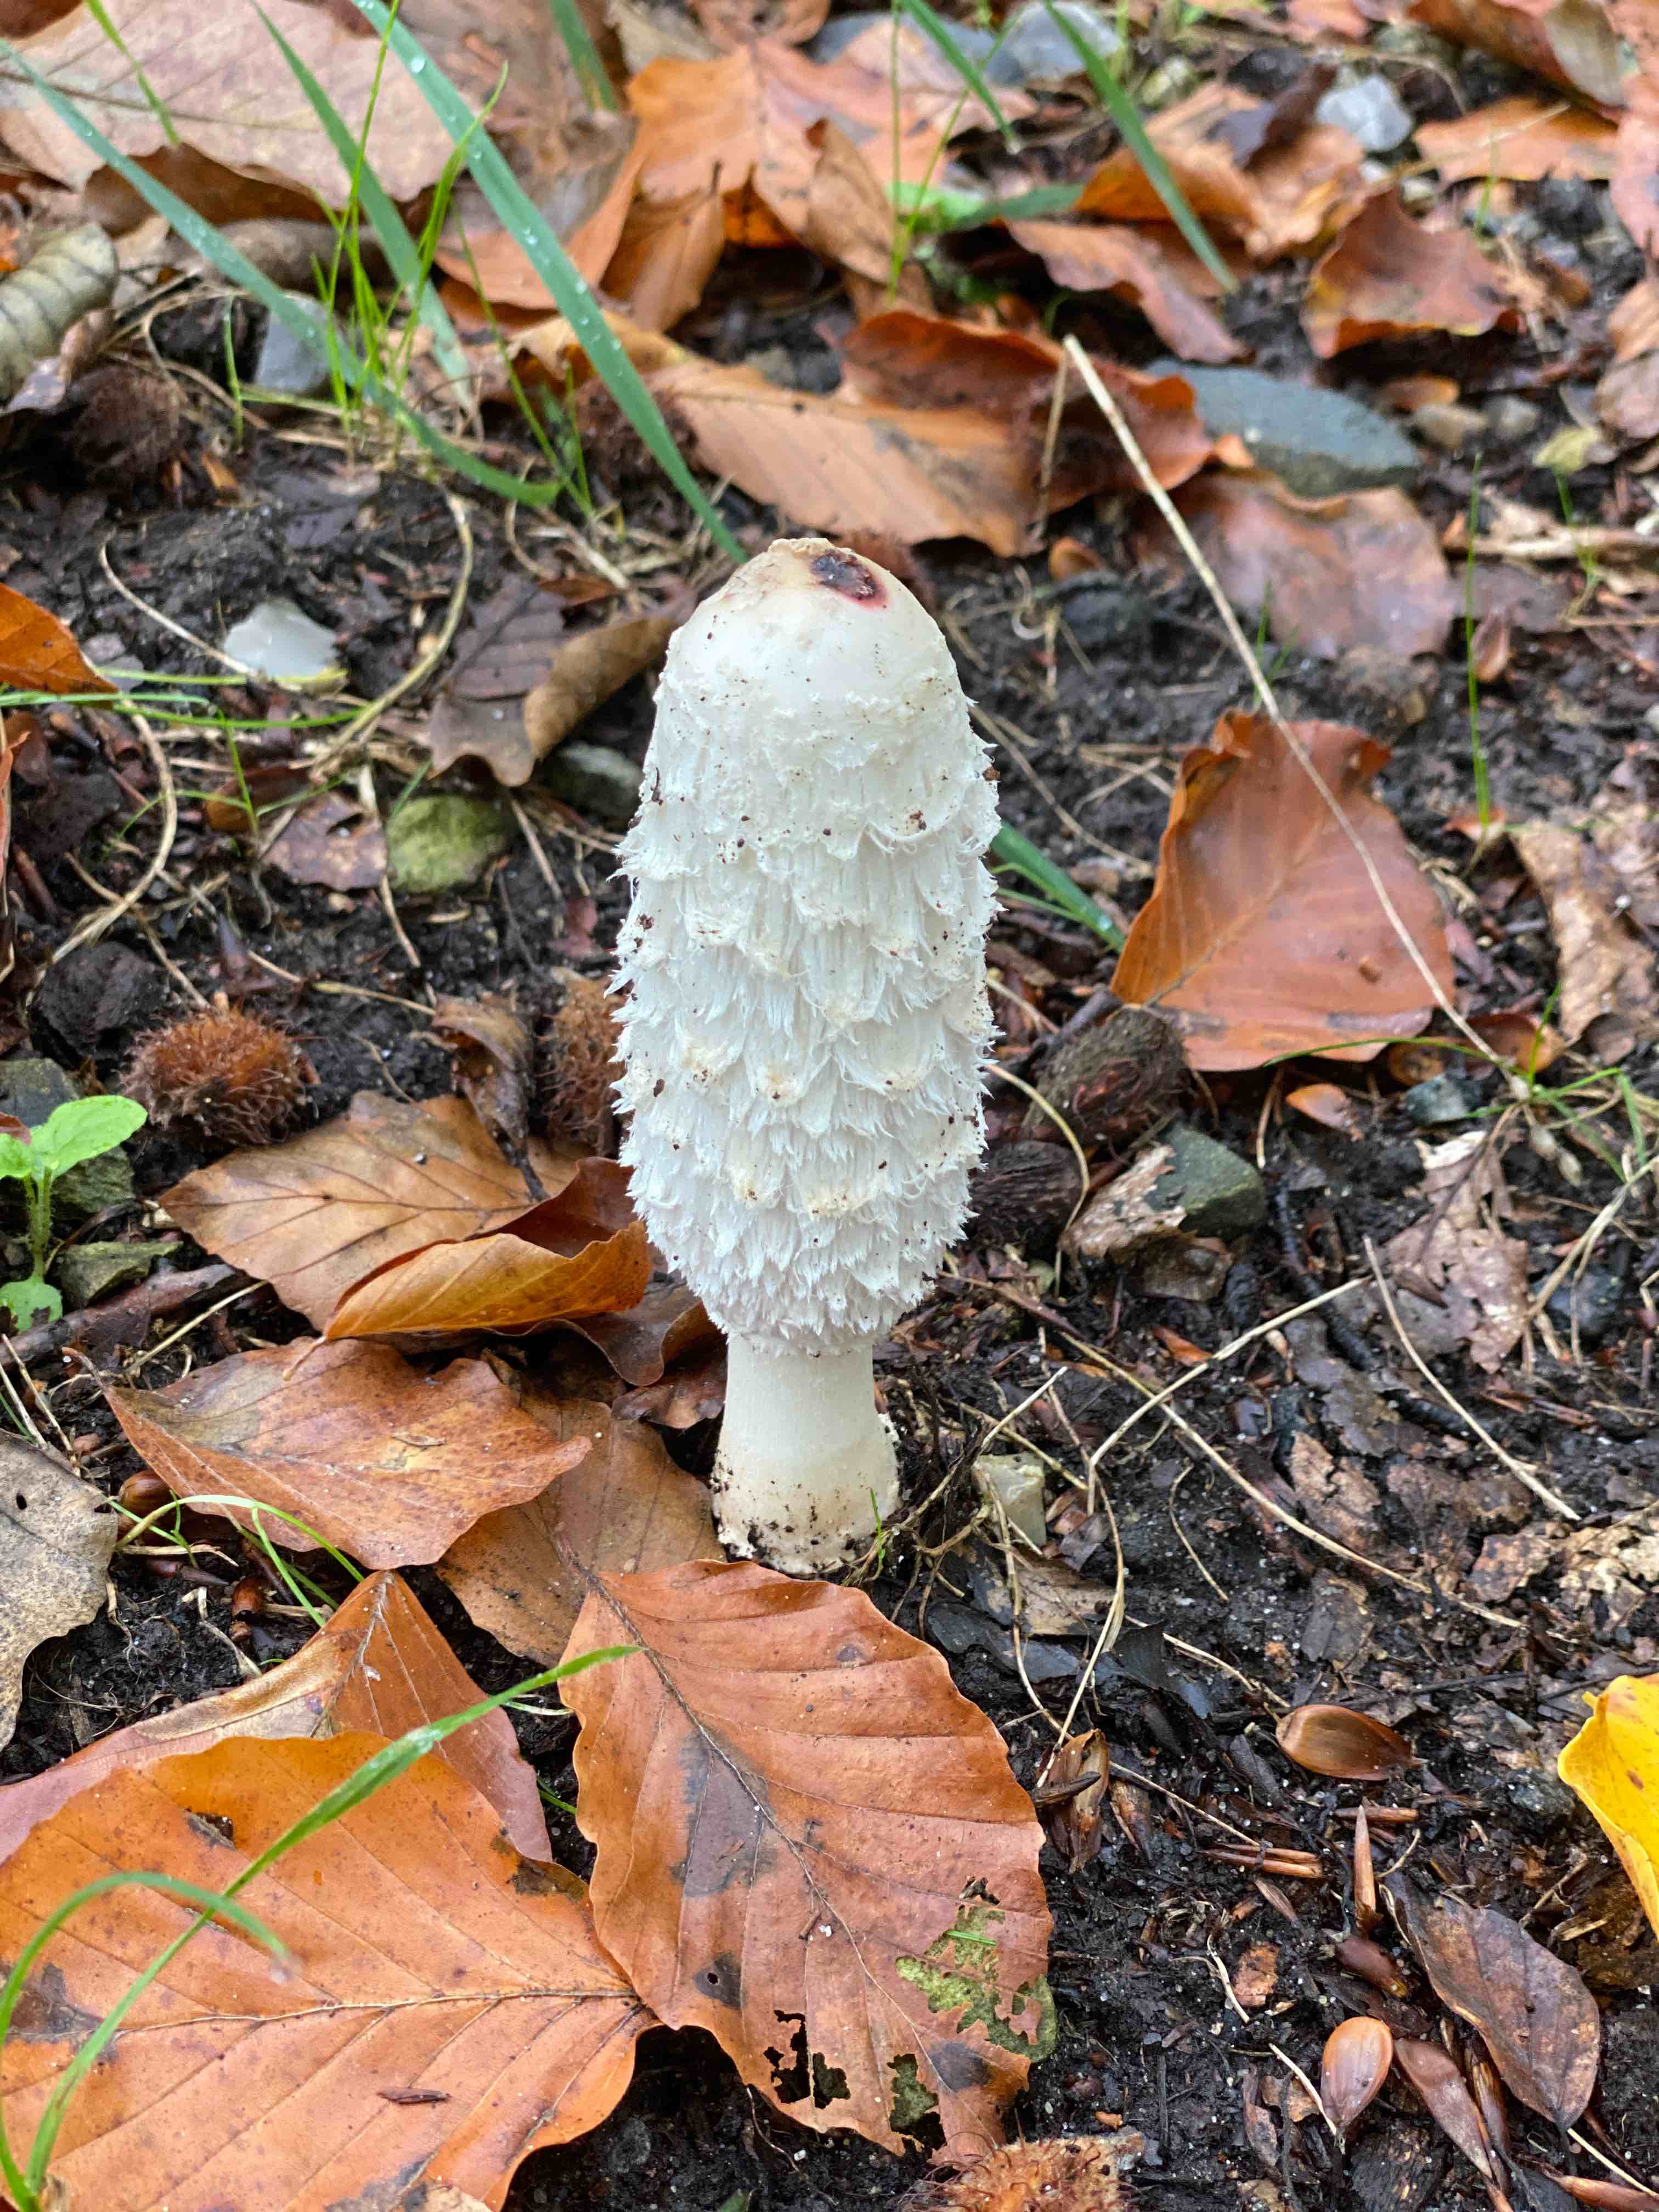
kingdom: Fungi
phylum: Basidiomycota
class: Agaricomycetes
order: Agaricales
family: Agaricaceae
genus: Coprinus
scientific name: Coprinus comatus
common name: stor parykhat
